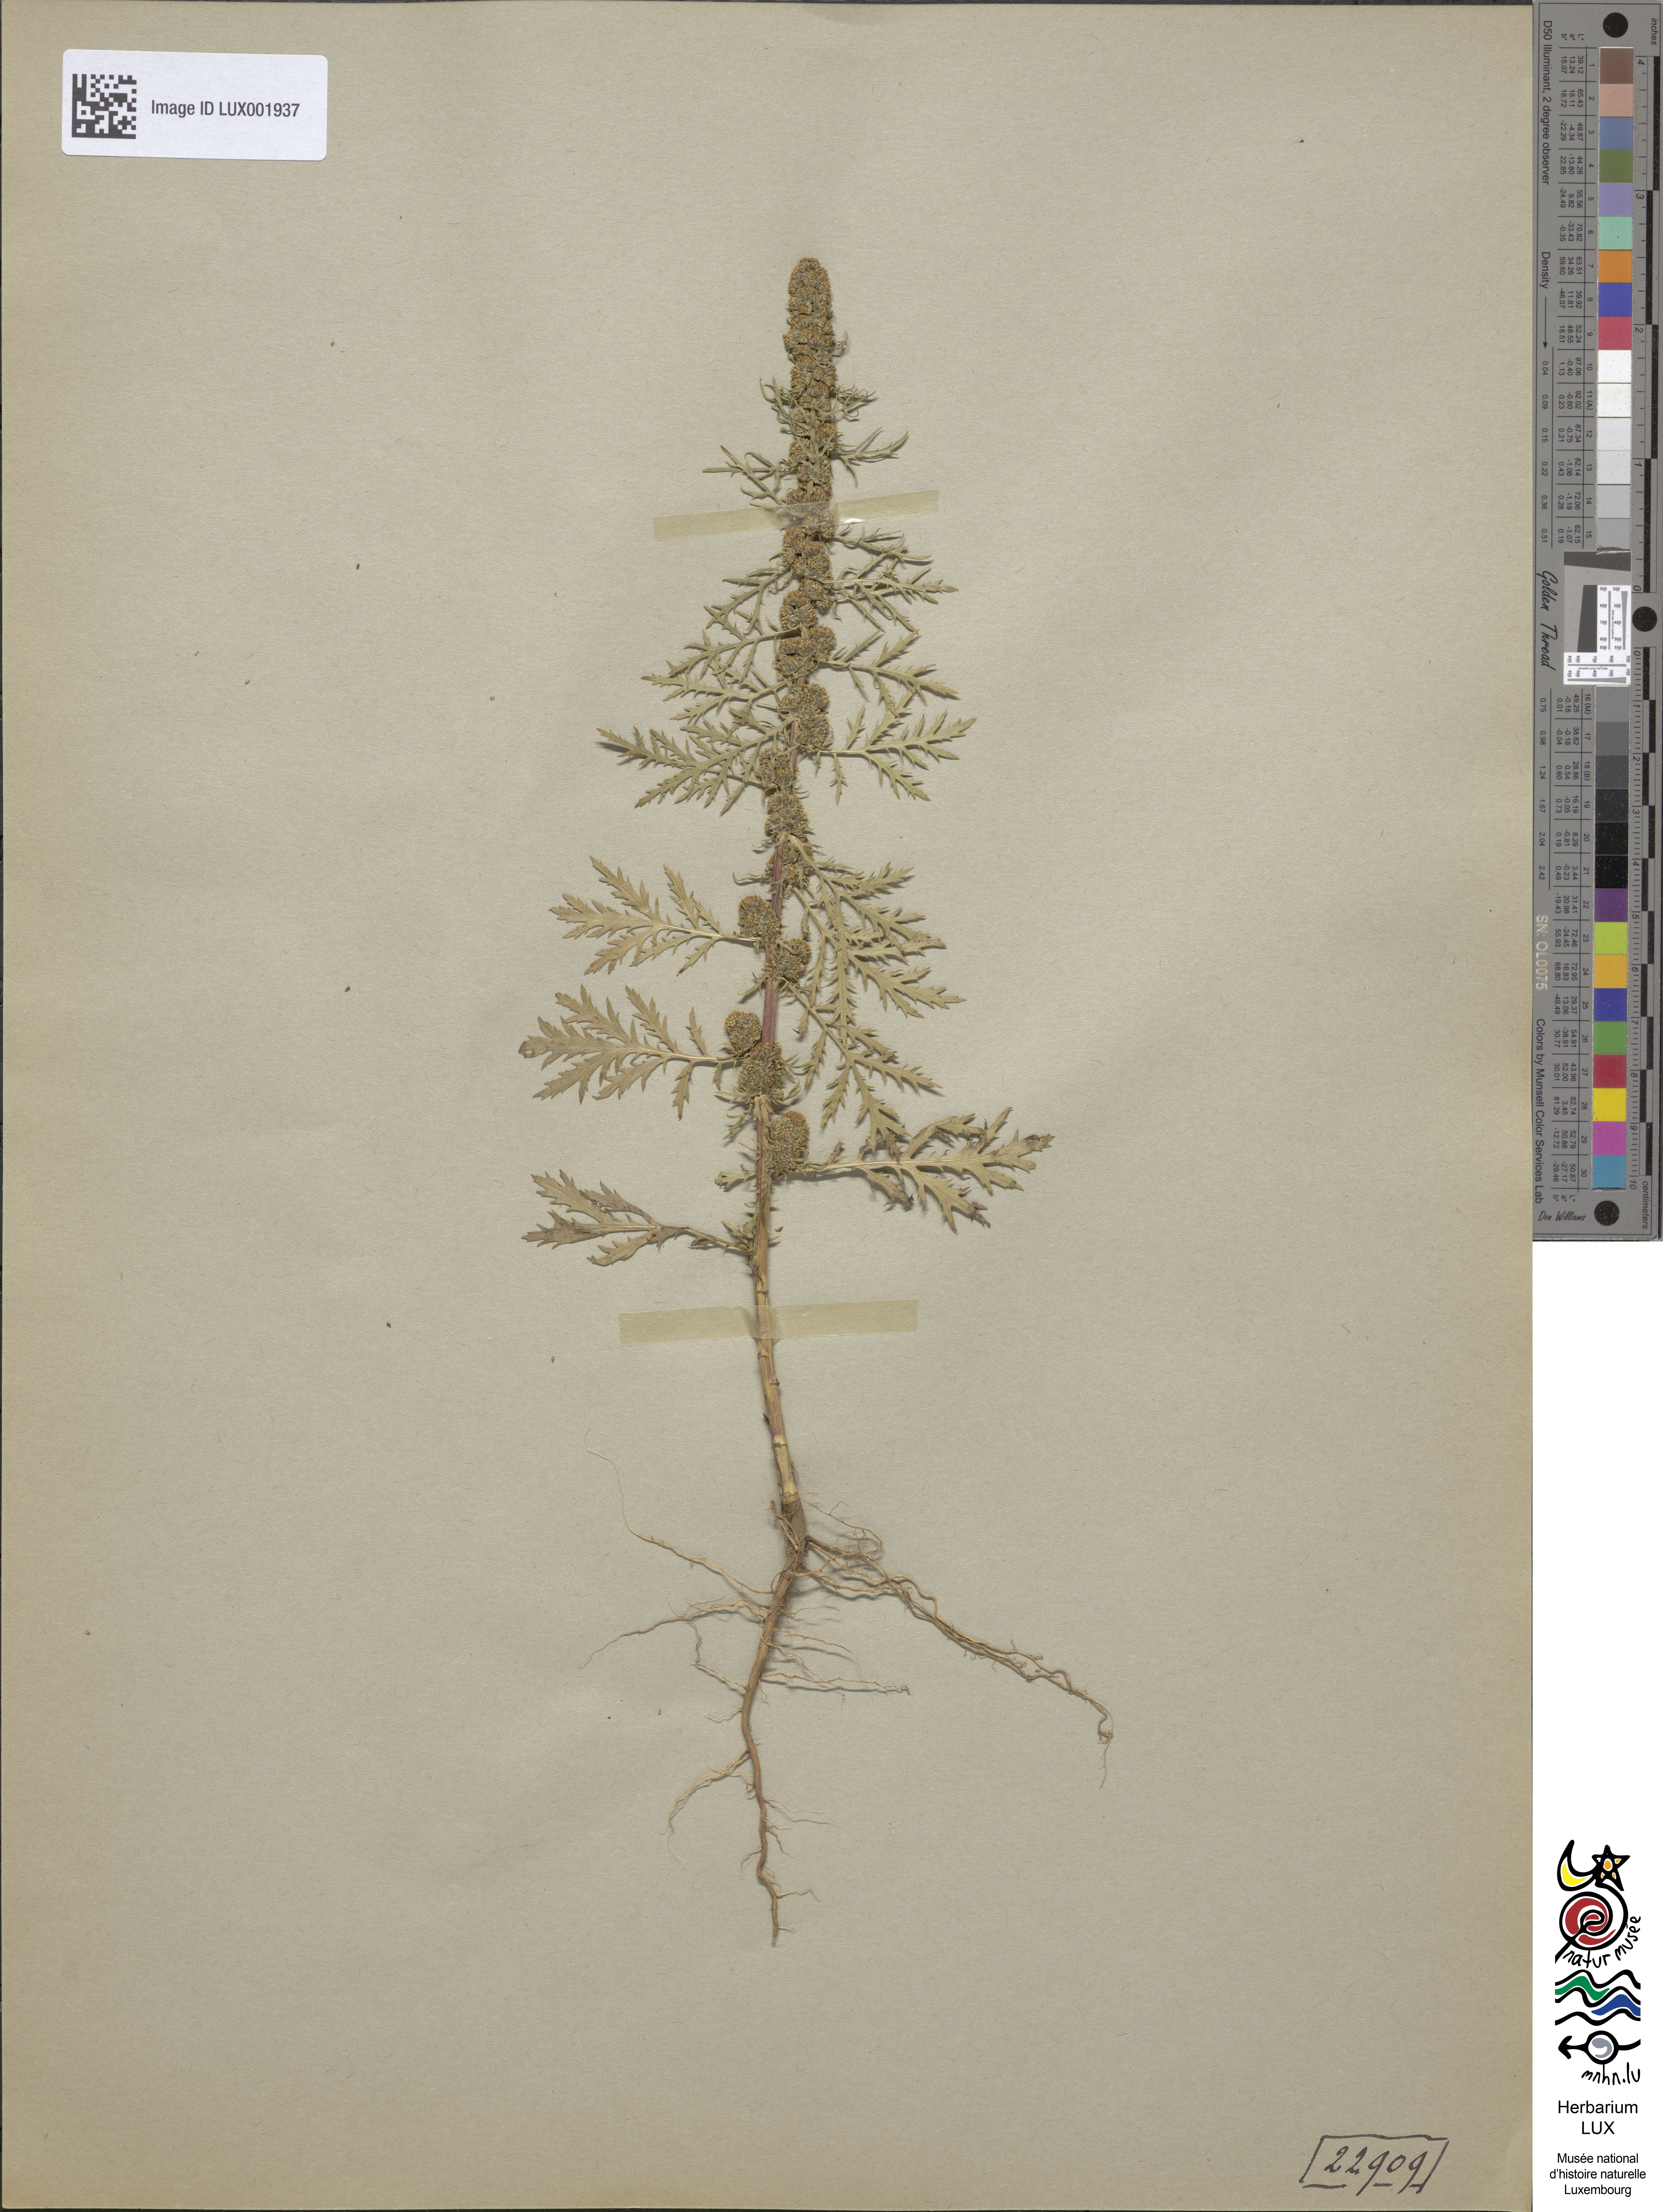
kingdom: Plantae
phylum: Tracheophyta
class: Magnoliopsida
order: Asterales
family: Asteraceae
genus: Artemisia
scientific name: Artemisia biennis
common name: Biennial wormwood
